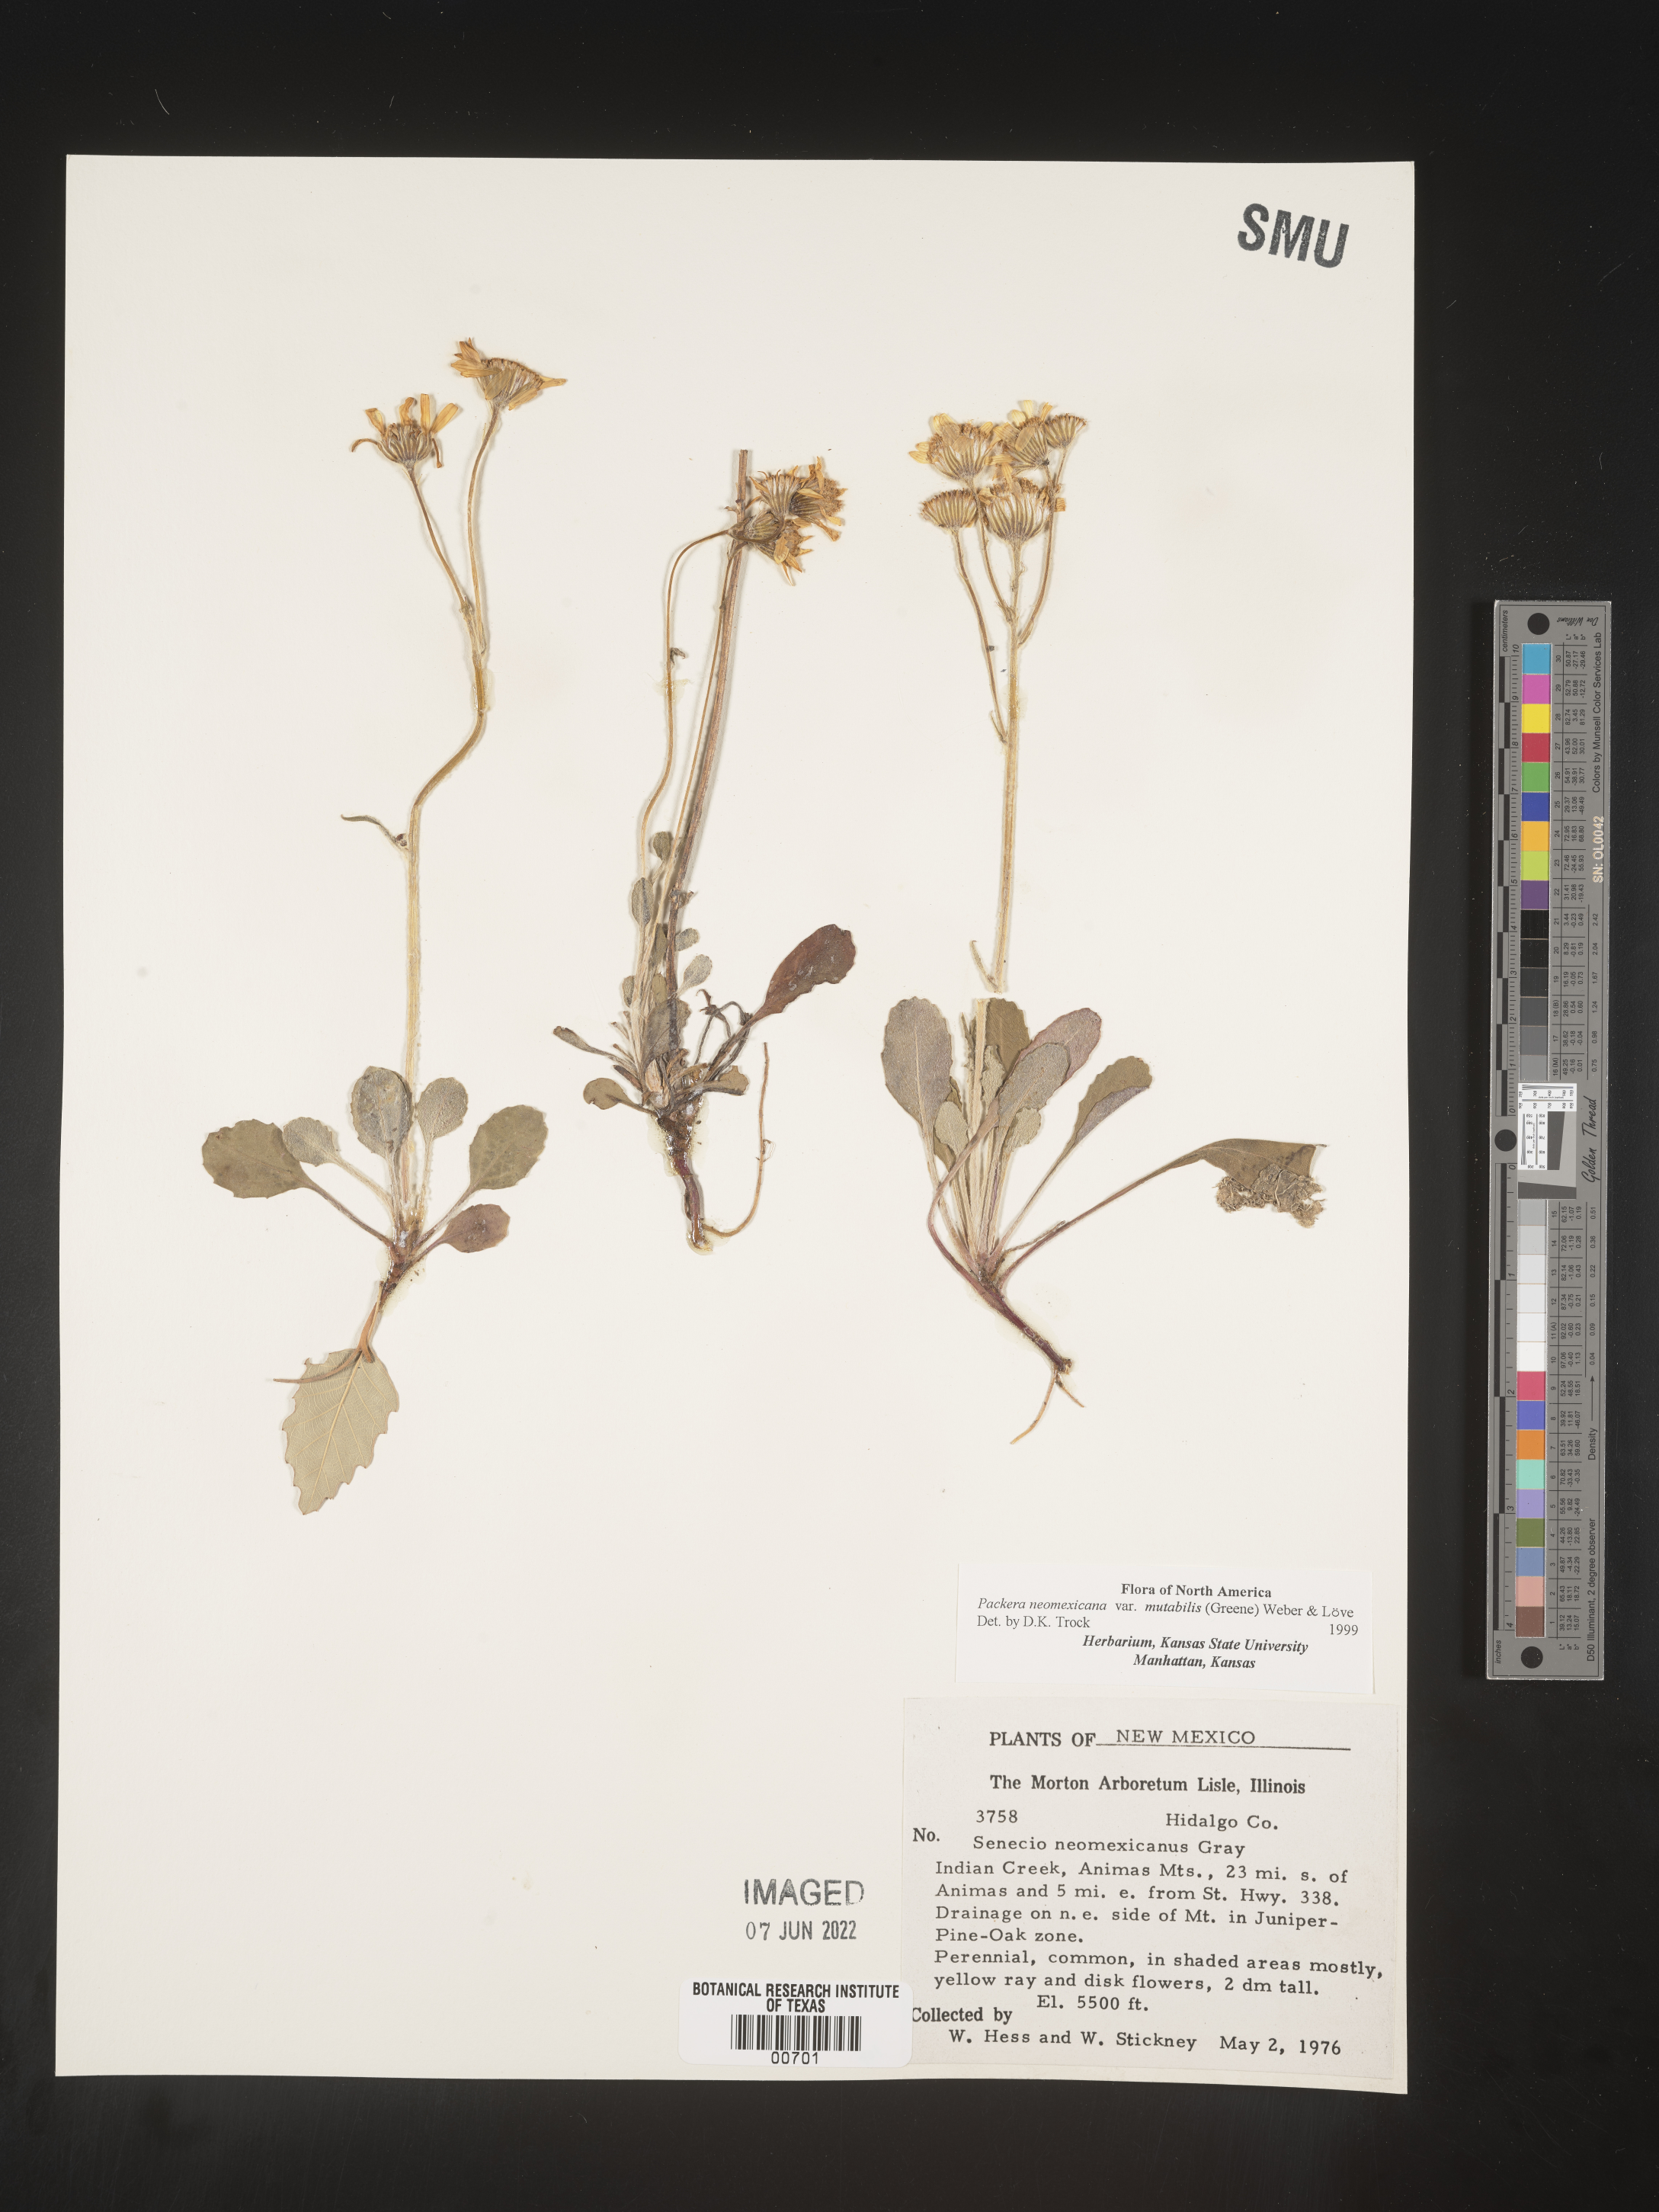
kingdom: Plantae
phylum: Tracheophyta
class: Magnoliopsida
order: Asterales
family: Asteraceae
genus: Packera
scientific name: Packera neomexicana
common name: New mexico butterweed
